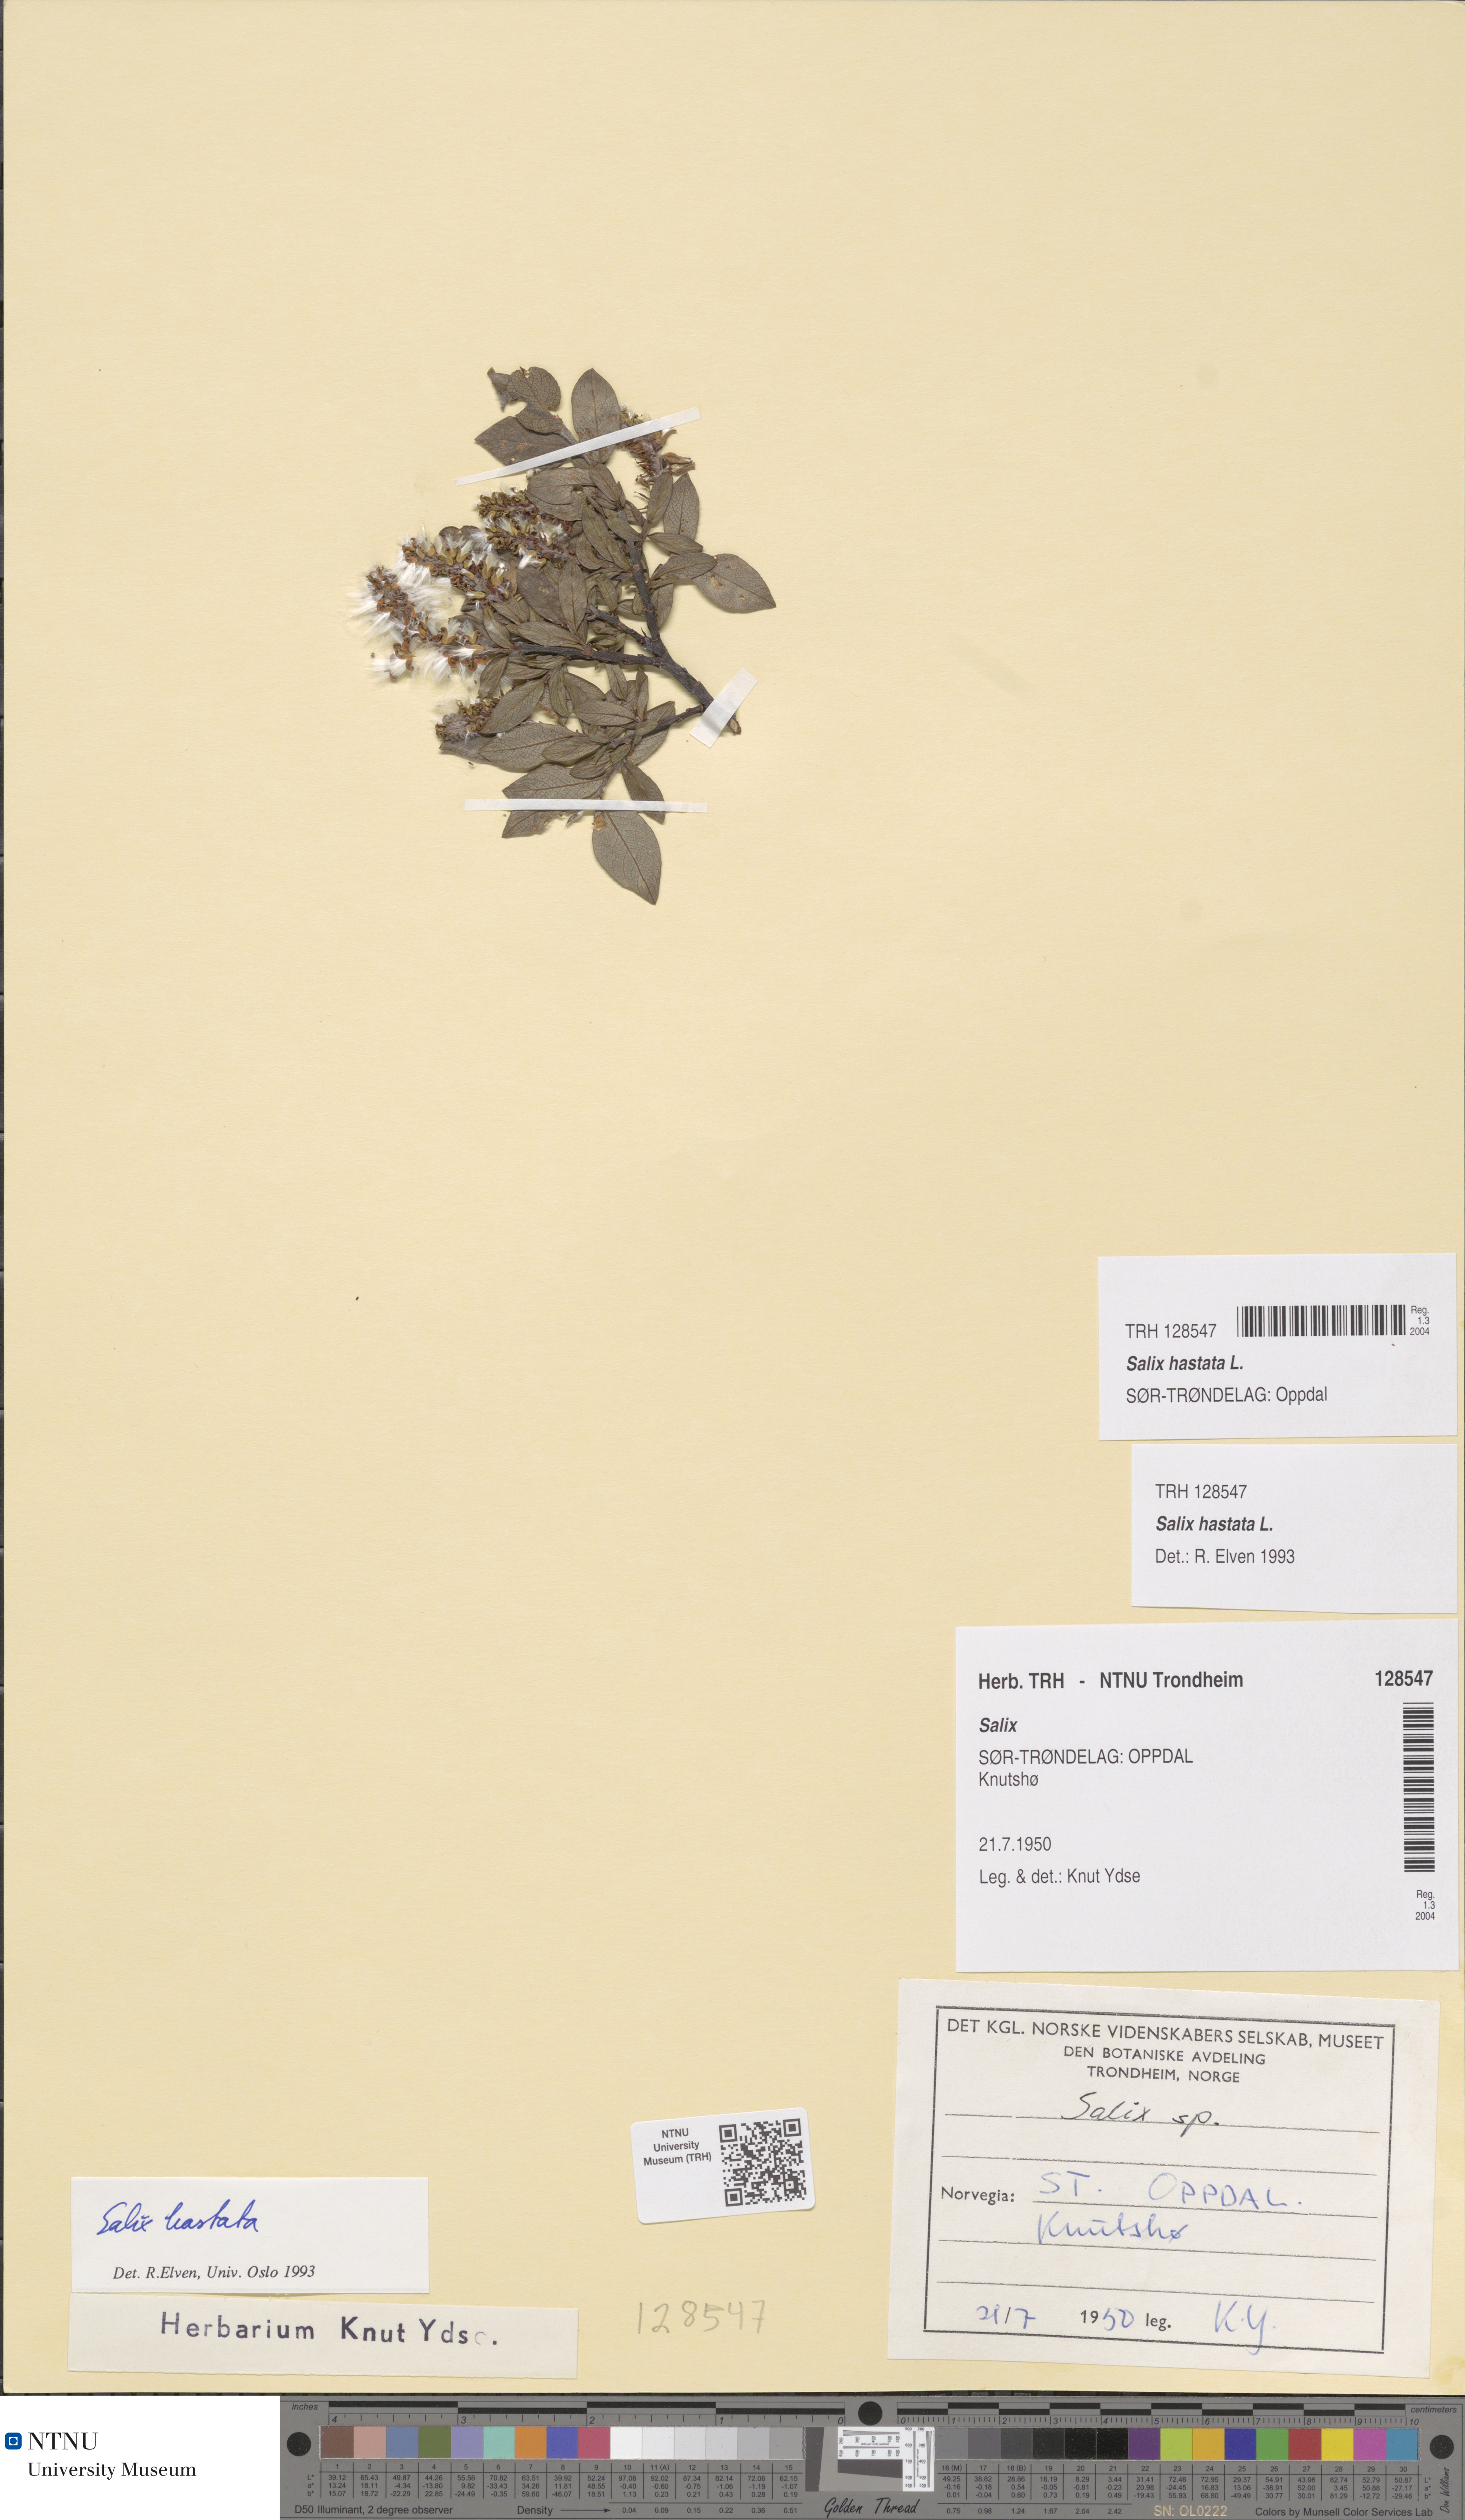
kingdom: Plantae
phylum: Tracheophyta
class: Magnoliopsida
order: Malpighiales
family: Salicaceae
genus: Salix
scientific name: Salix hastata
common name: Halberd willow
